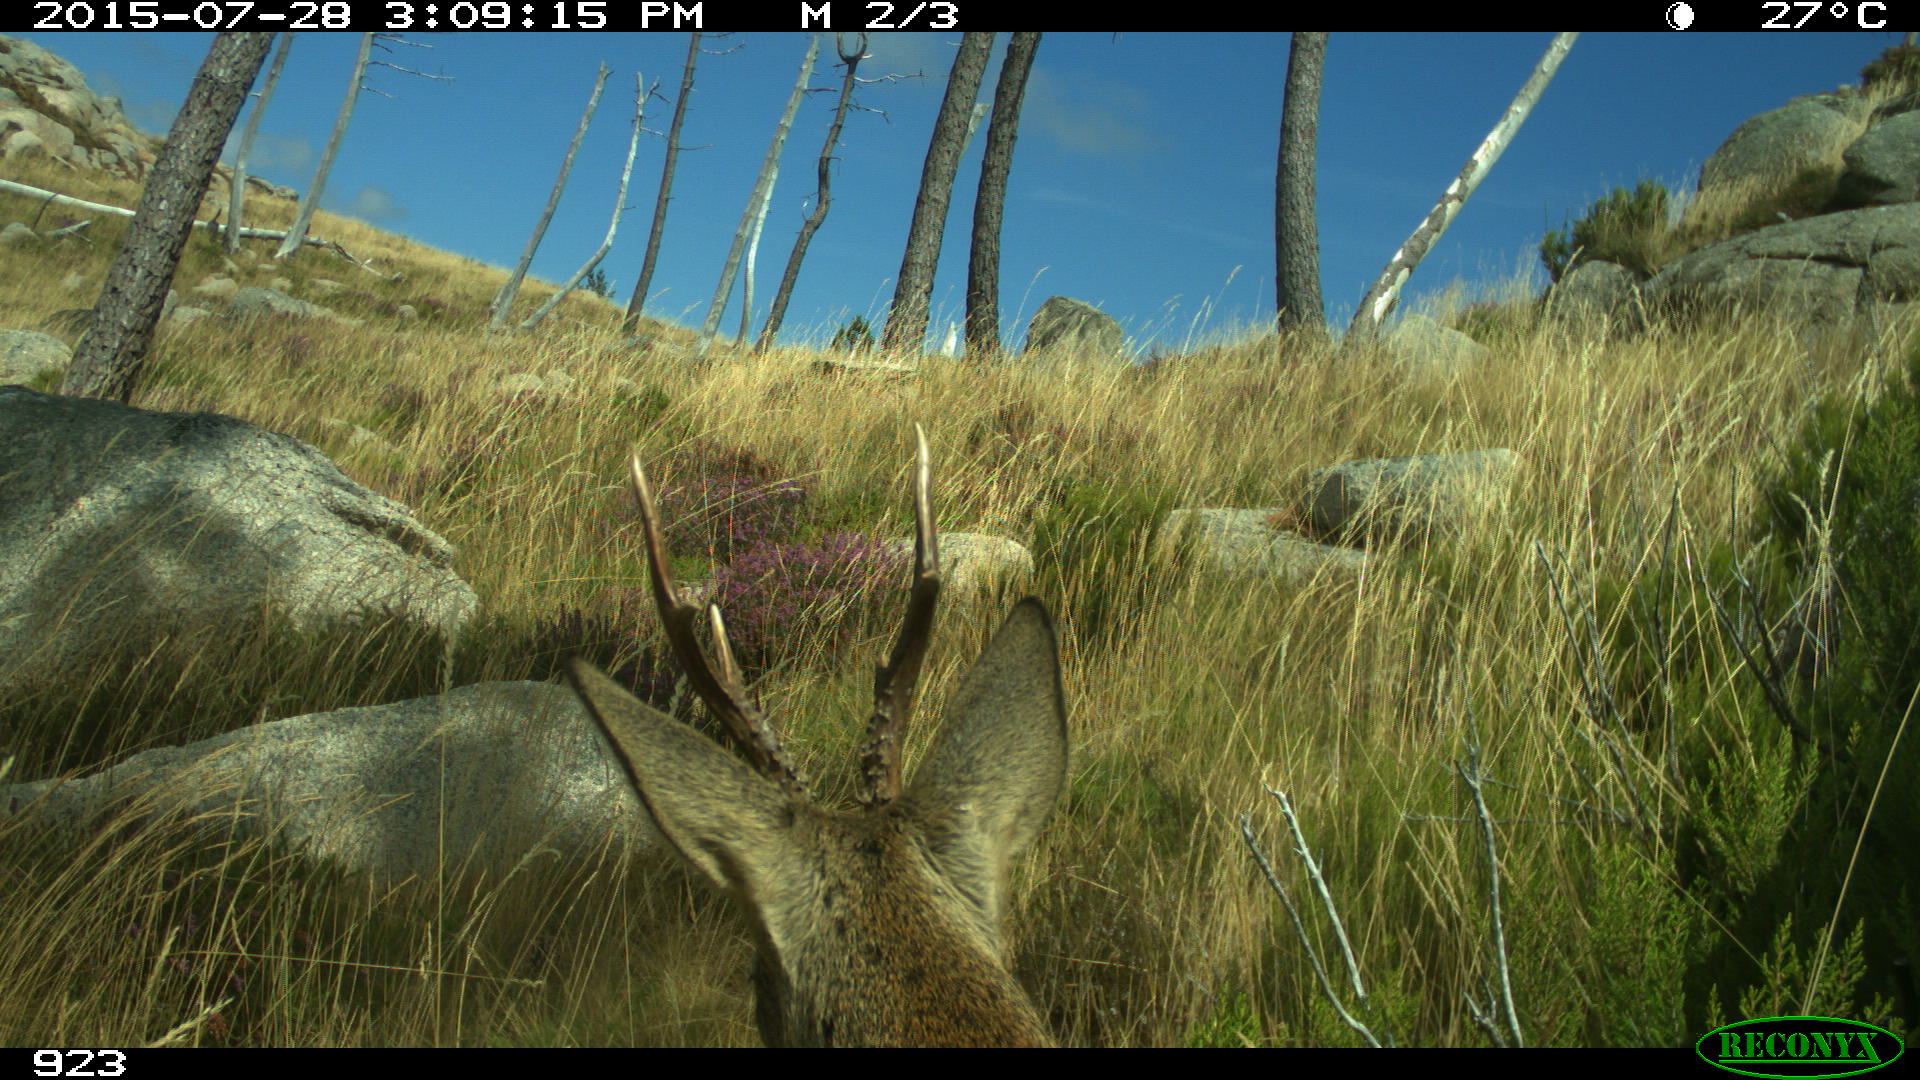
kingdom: Animalia
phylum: Chordata
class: Mammalia
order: Artiodactyla
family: Cervidae
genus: Capreolus
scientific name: Capreolus capreolus
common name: Western roe deer
